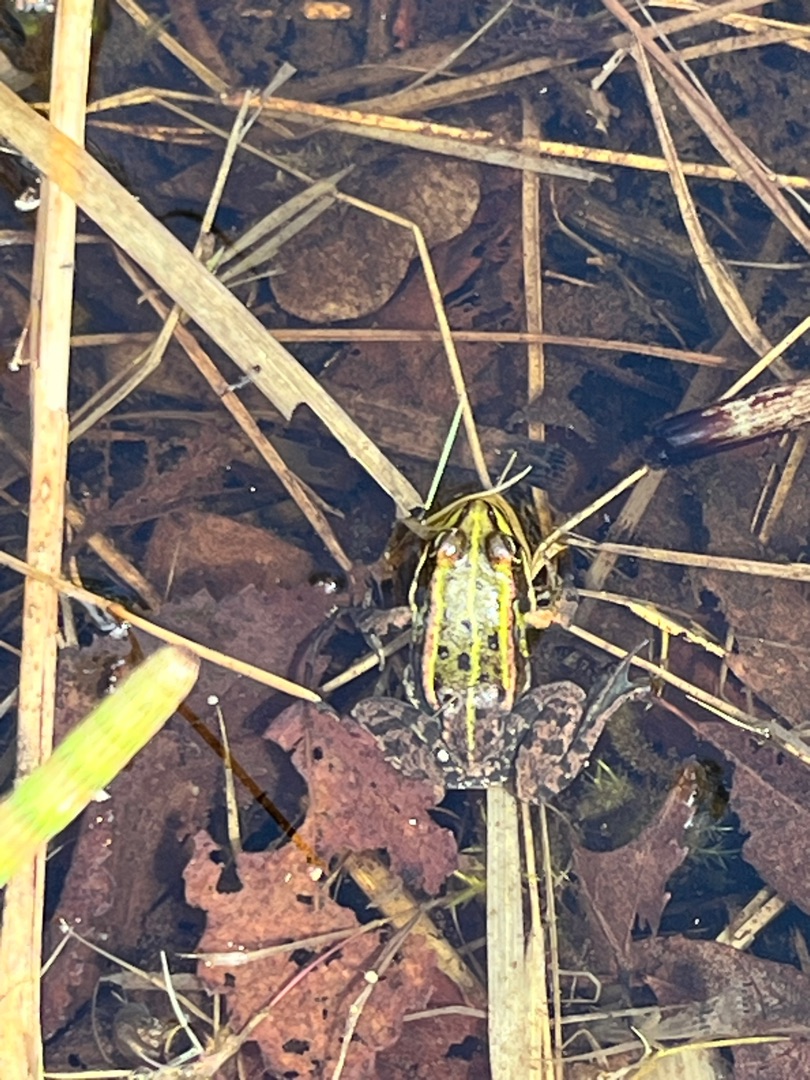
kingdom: Animalia
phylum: Chordata
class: Amphibia
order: Anura
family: Ranidae
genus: Pelophylax
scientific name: Pelophylax lessonae
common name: Grøn frø
